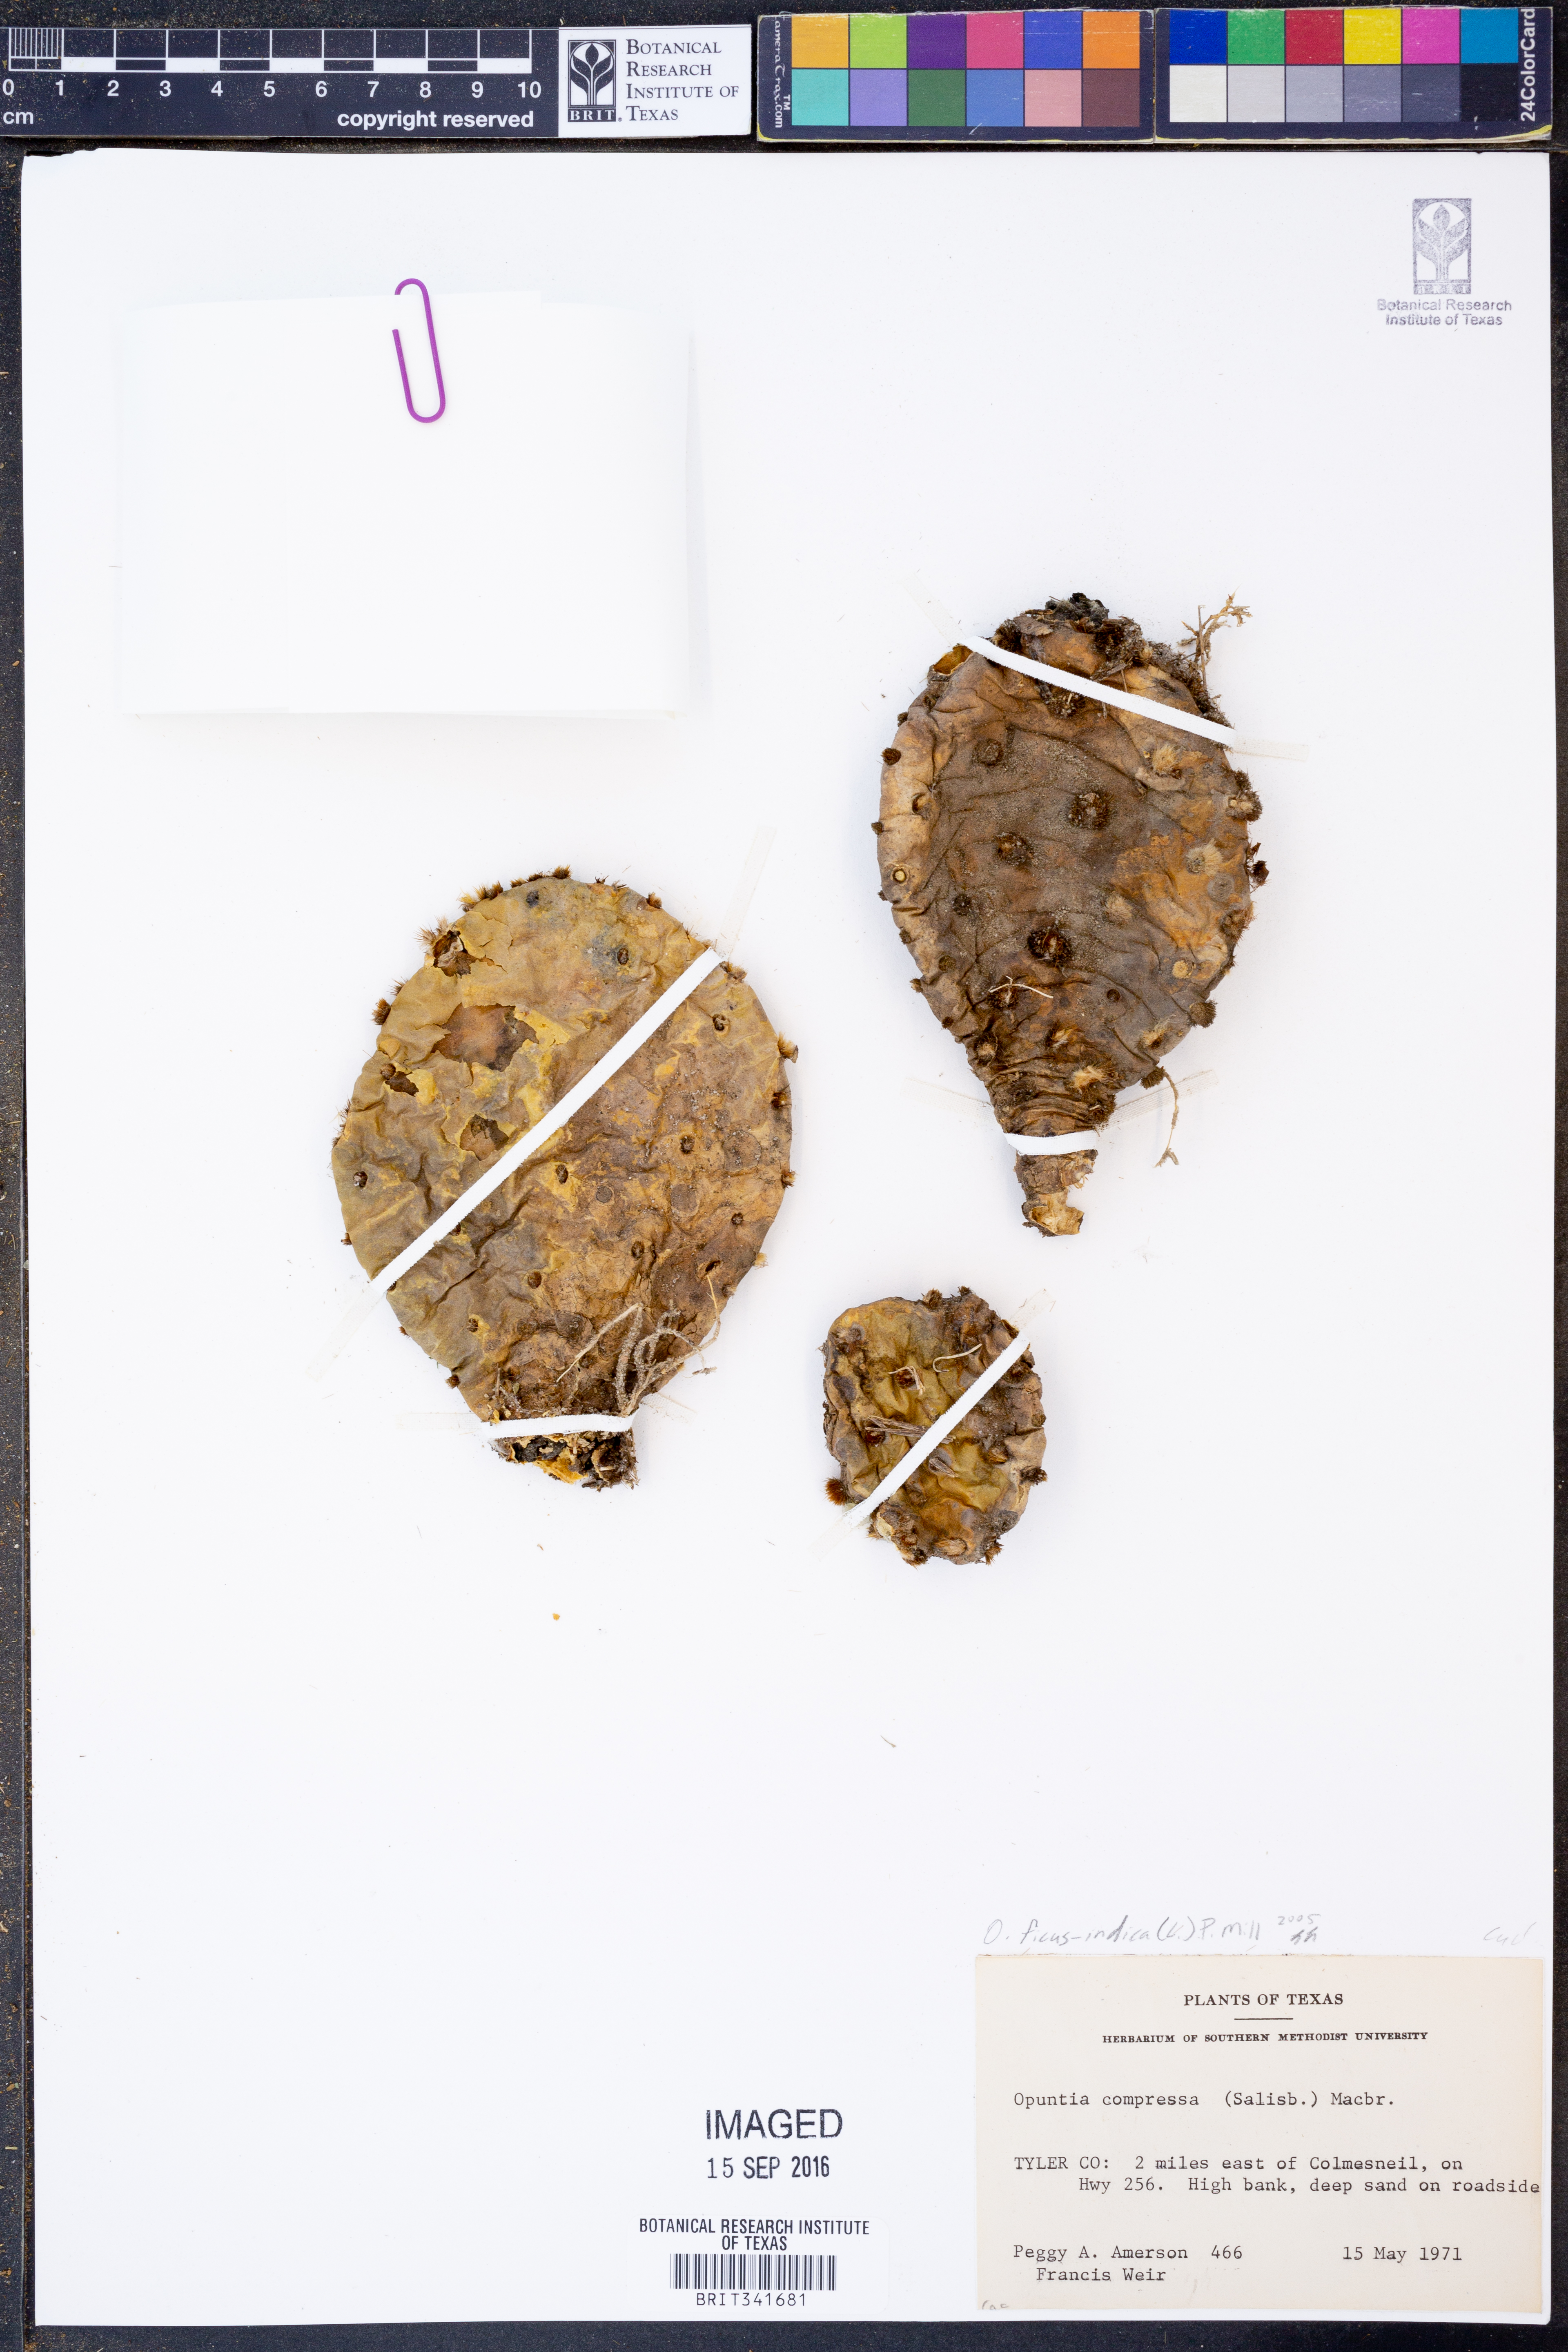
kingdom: Plantae
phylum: Tracheophyta
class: Magnoliopsida
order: Caryophyllales
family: Cactaceae
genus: Opuntia
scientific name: Opuntia ficus-indica
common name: Barbary fig
